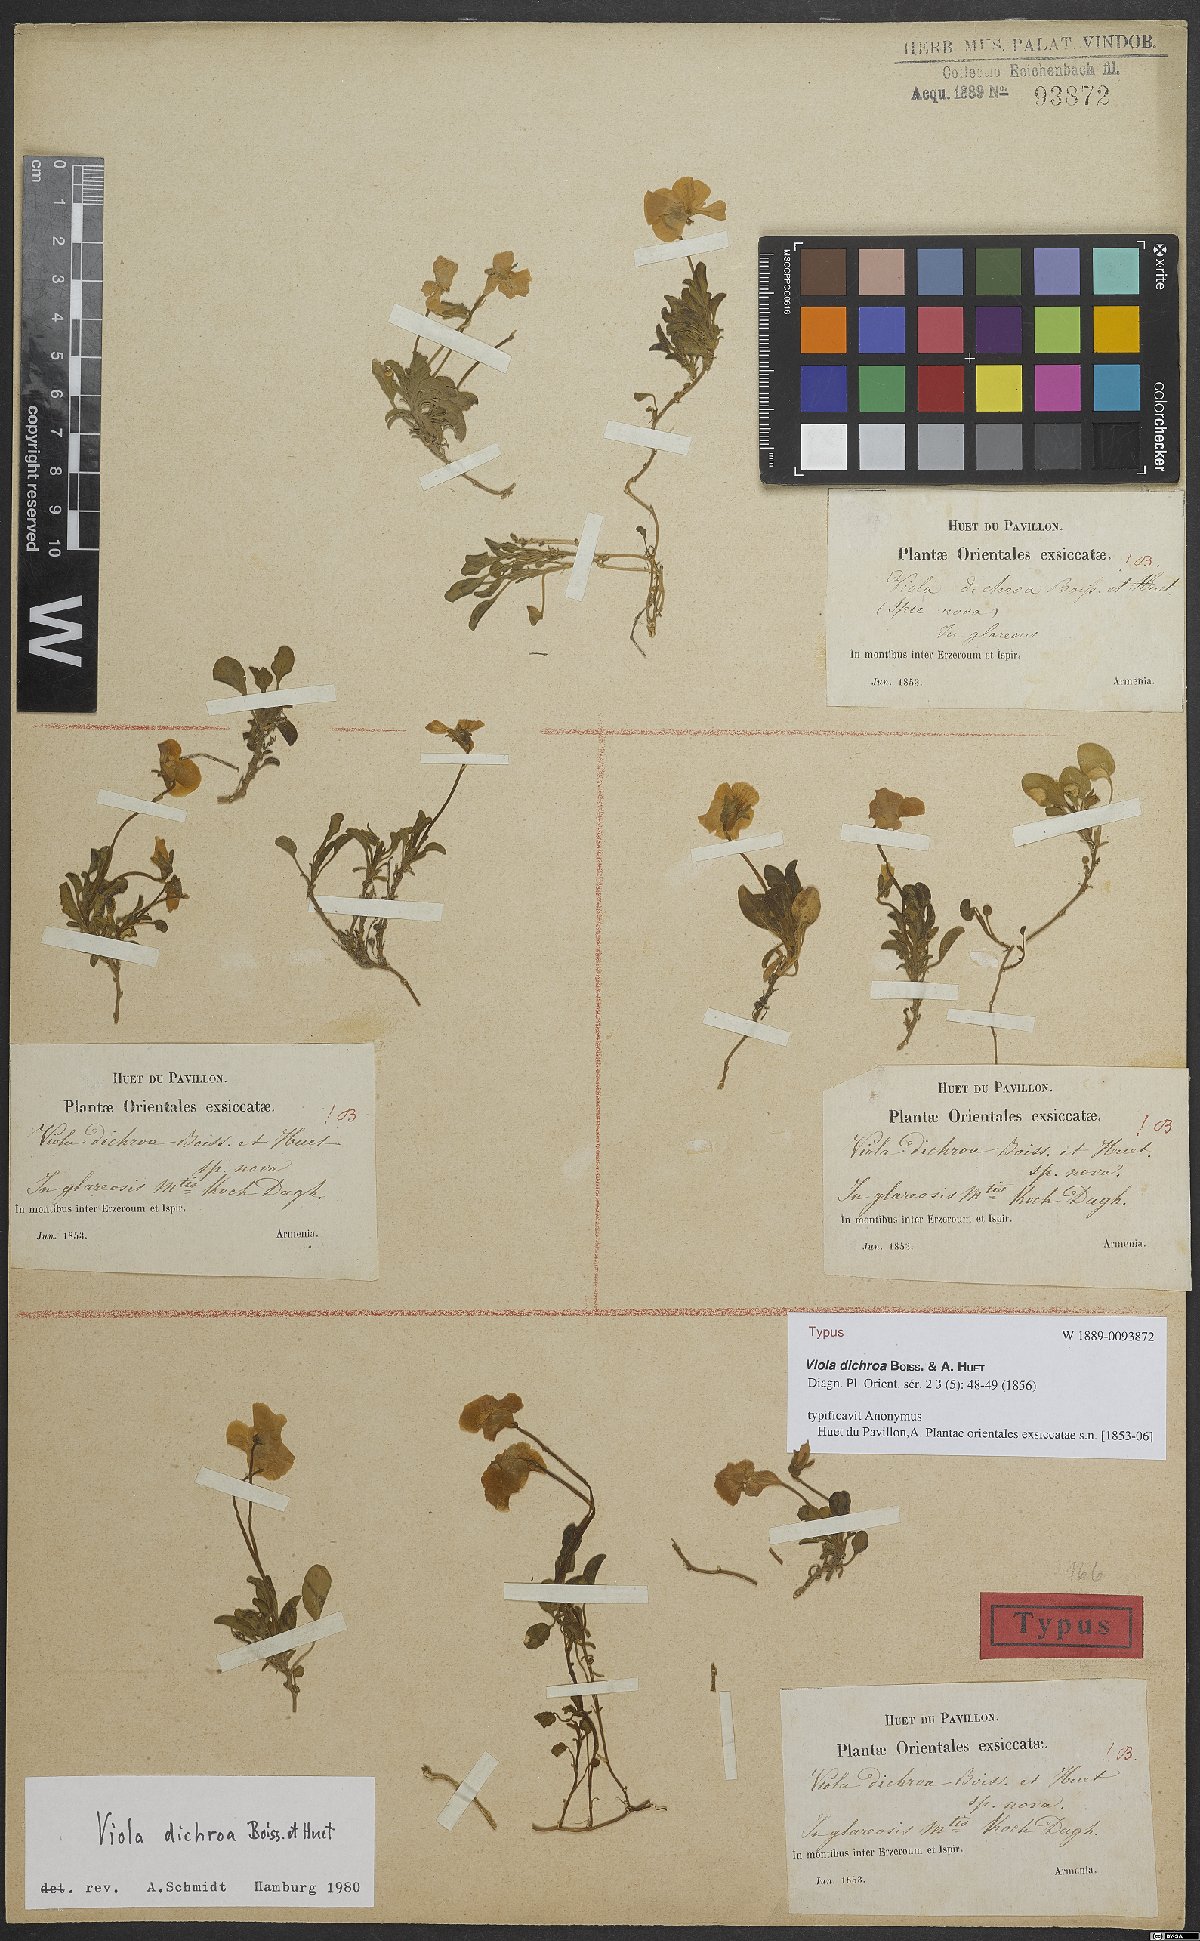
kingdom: Plantae
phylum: Tracheophyta
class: Magnoliopsida
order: Malpighiales
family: Violaceae
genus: Viola
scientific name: Viola dichroa
